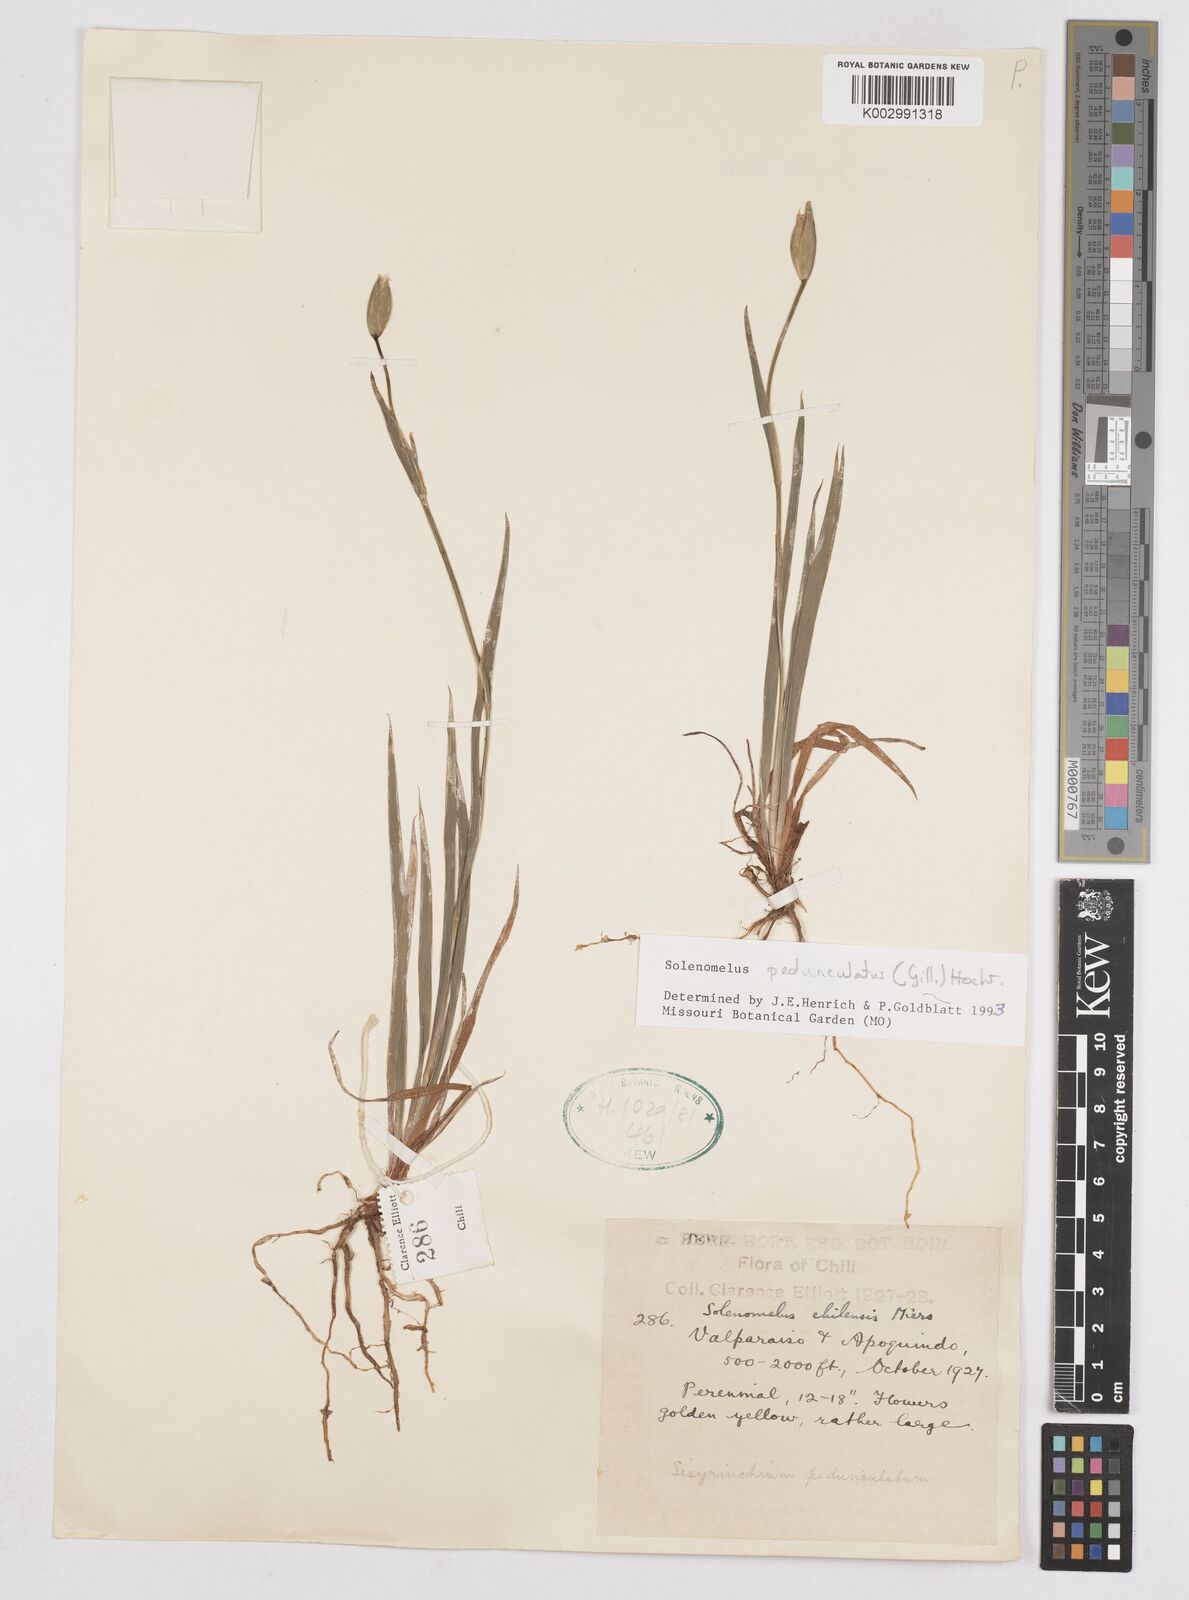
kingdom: Plantae
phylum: Tracheophyta
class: Liliopsida
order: Asparagales
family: Iridaceae
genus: Solenomelus
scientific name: Solenomelus pedunculatus
